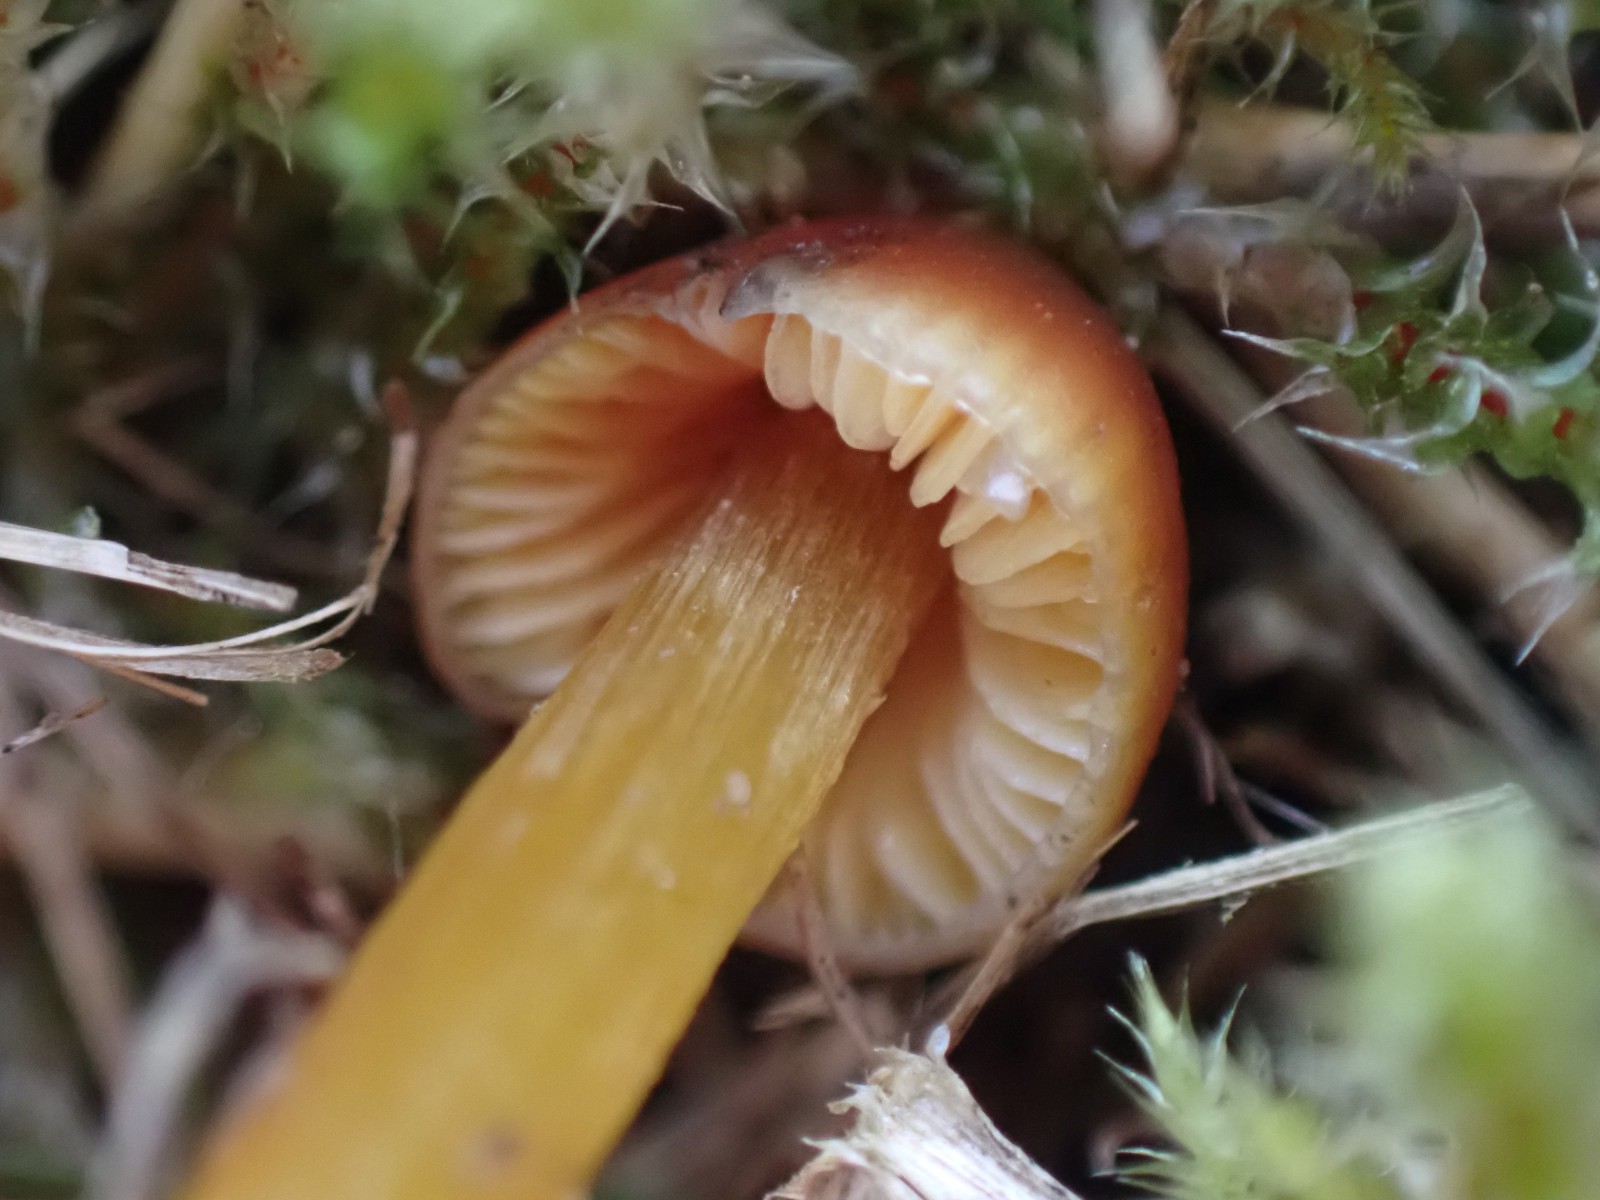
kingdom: Fungi
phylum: Basidiomycota
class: Agaricomycetes
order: Agaricales
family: Hygrophoraceae
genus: Hygrocybe
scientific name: Hygrocybe conica
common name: kegle-vokshat
